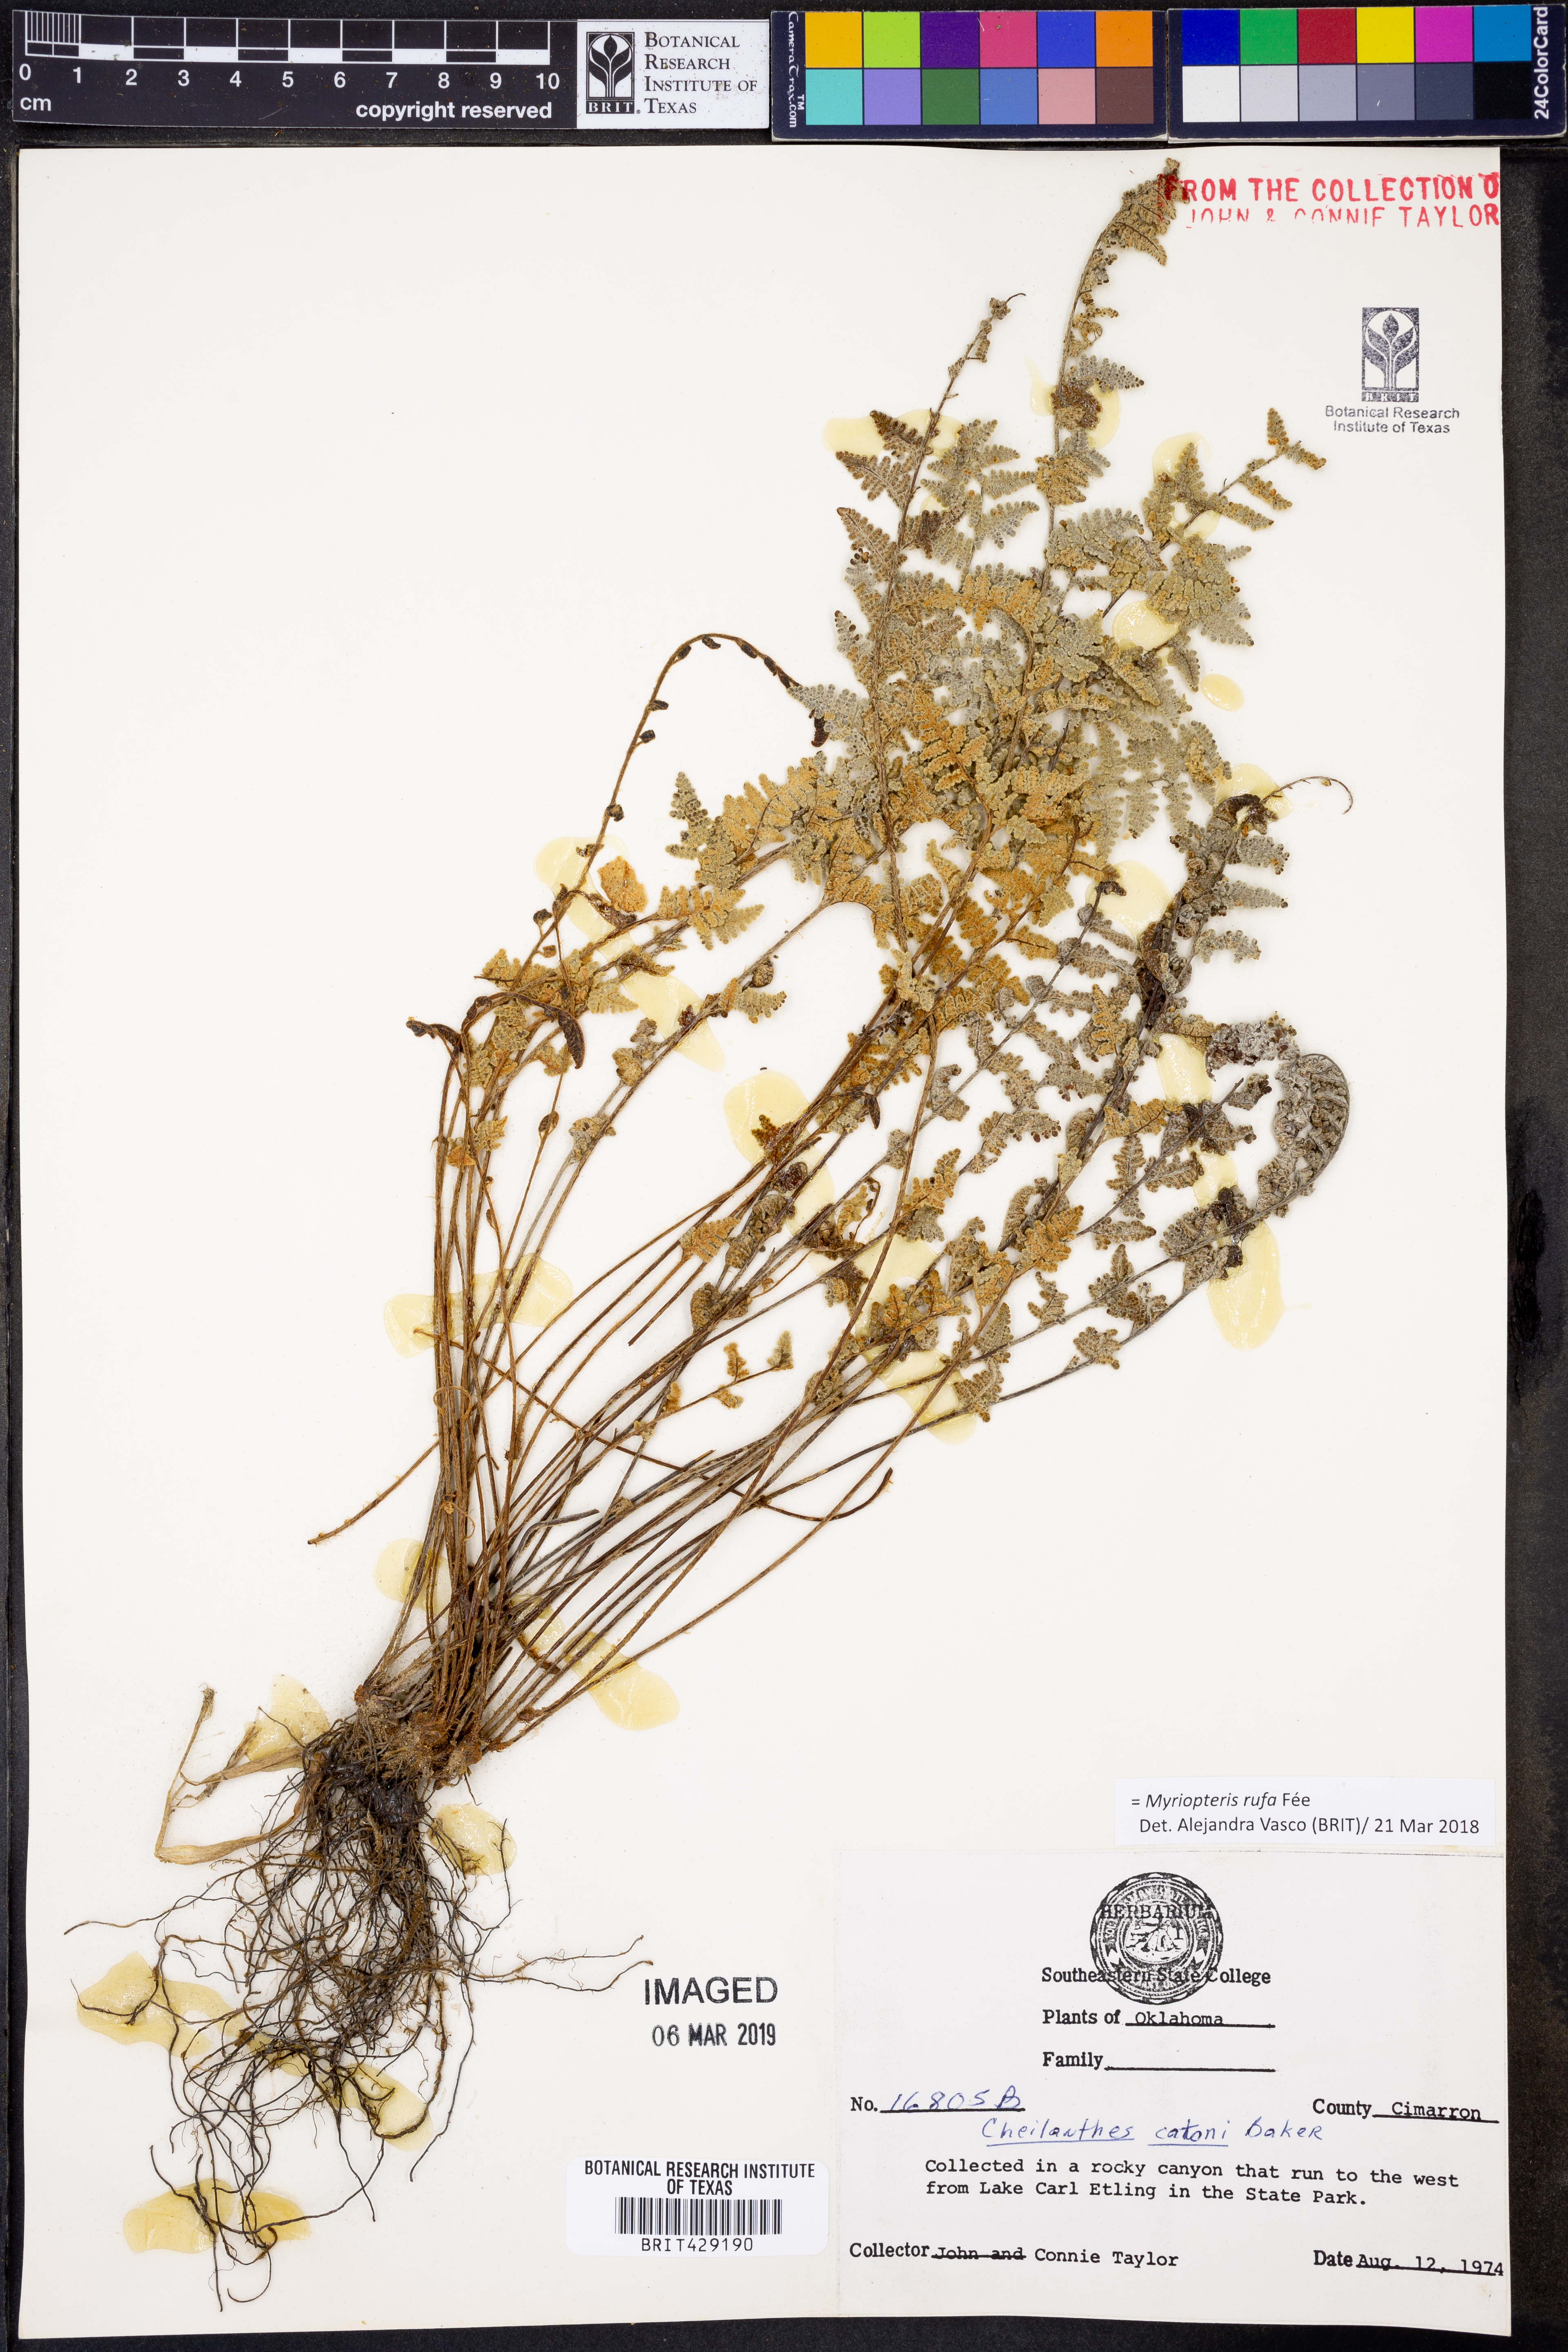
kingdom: Plantae
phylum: Tracheophyta
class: Polypodiopsida
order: Polypodiales
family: Pteridaceae
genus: Myriopteris
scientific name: Myriopteris rufa
